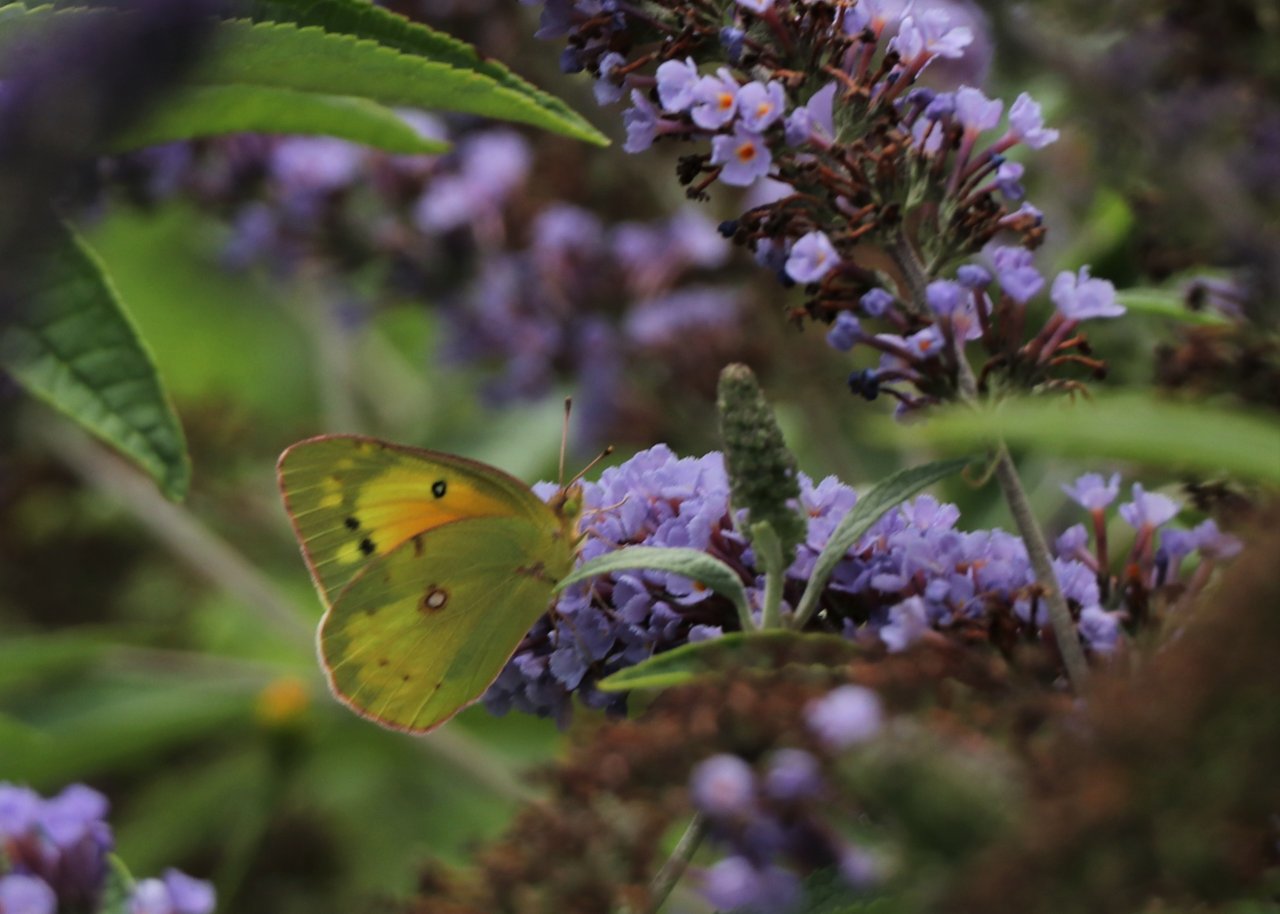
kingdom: Animalia
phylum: Arthropoda
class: Insecta
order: Lepidoptera
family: Pieridae
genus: Colias
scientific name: Colias eurytheme
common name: Orange Sulphur
